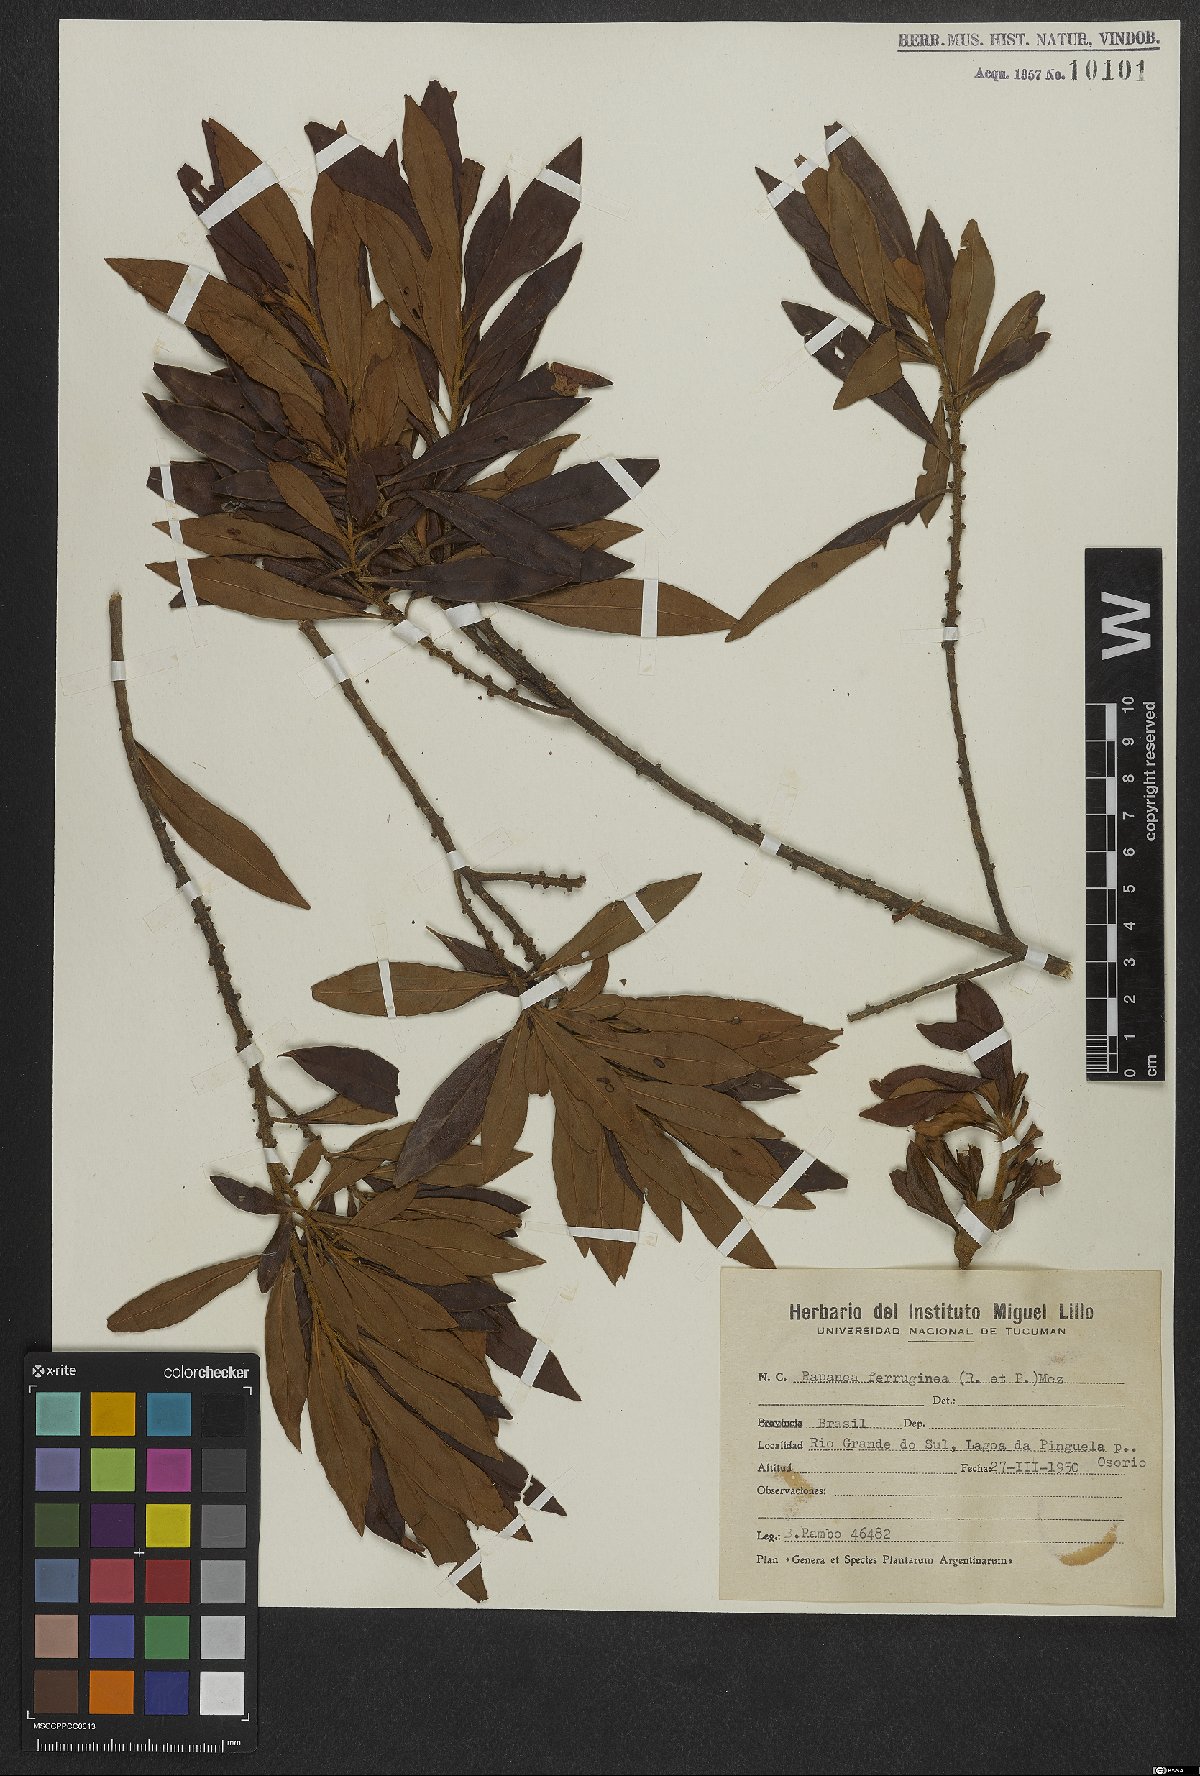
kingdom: Plantae
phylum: Tracheophyta
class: Magnoliopsida
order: Ericales
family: Primulaceae
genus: Myrsine
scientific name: Myrsine coriacea
